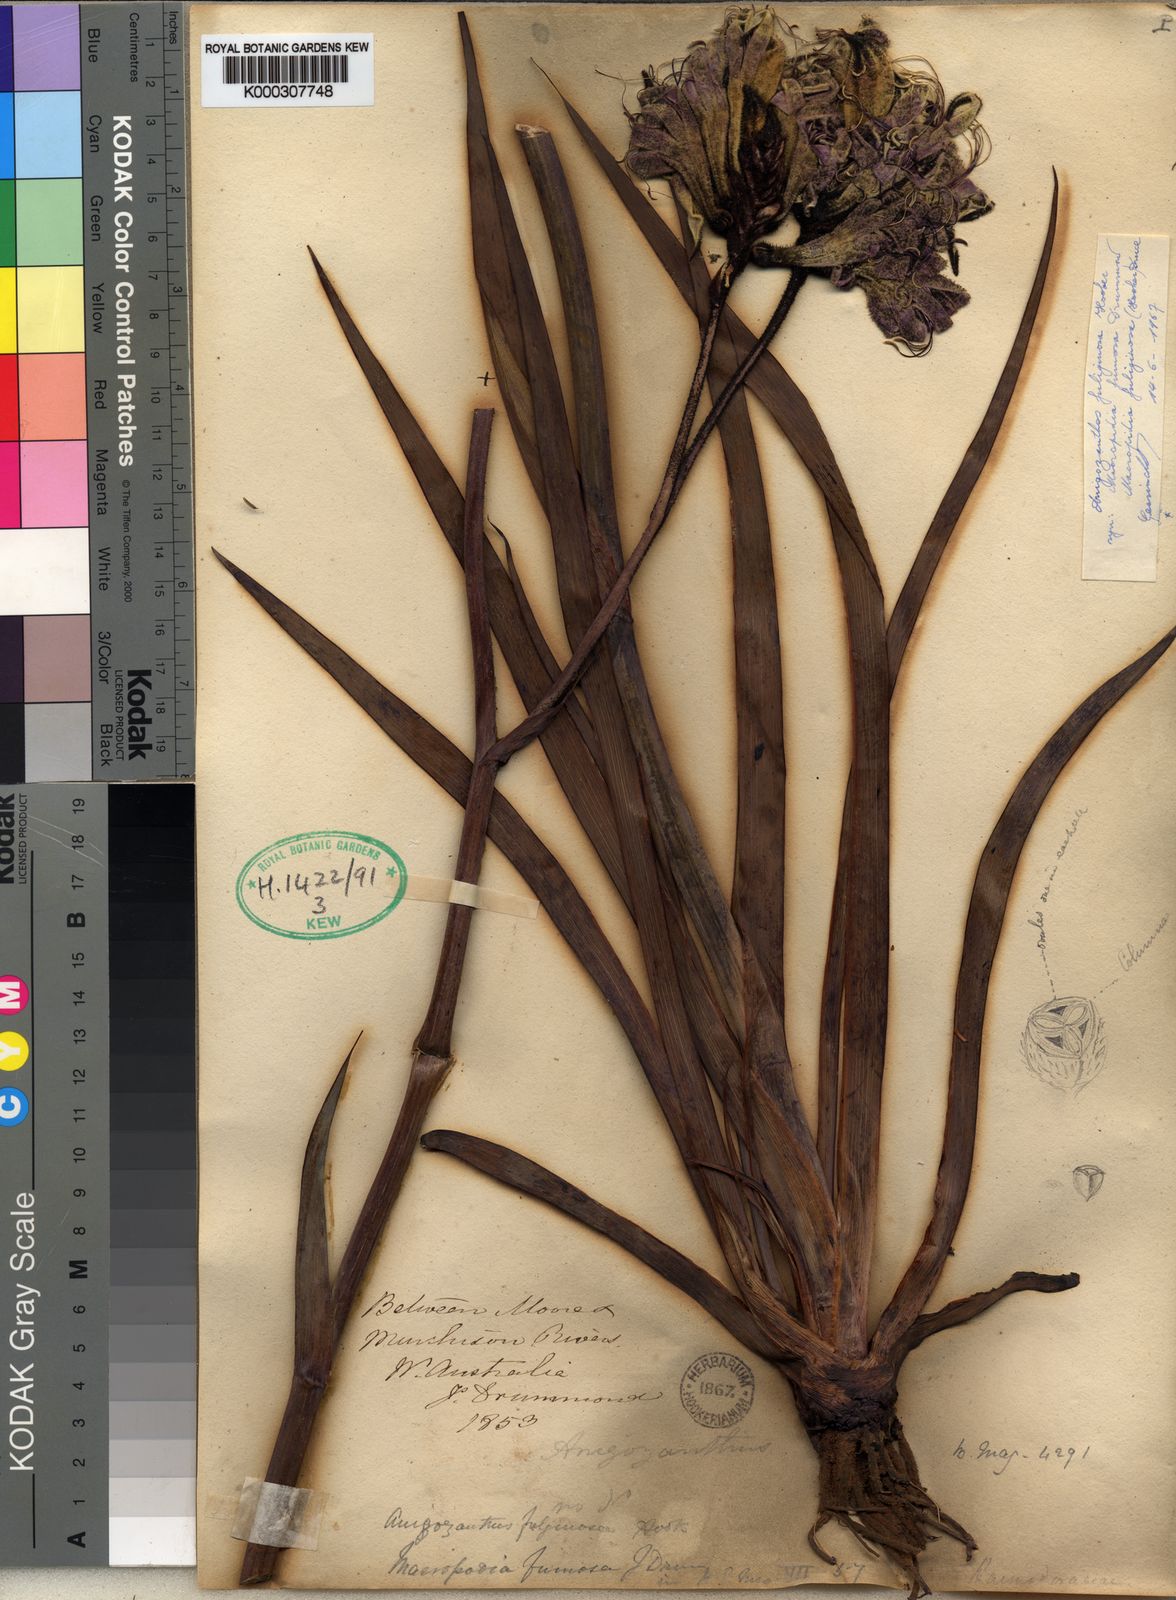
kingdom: Plantae
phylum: Tracheophyta
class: Liliopsida
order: Commelinales
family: Haemodoraceae
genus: Macropidia
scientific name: Macropidia fuliginosa
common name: Black kangaroo-paw
